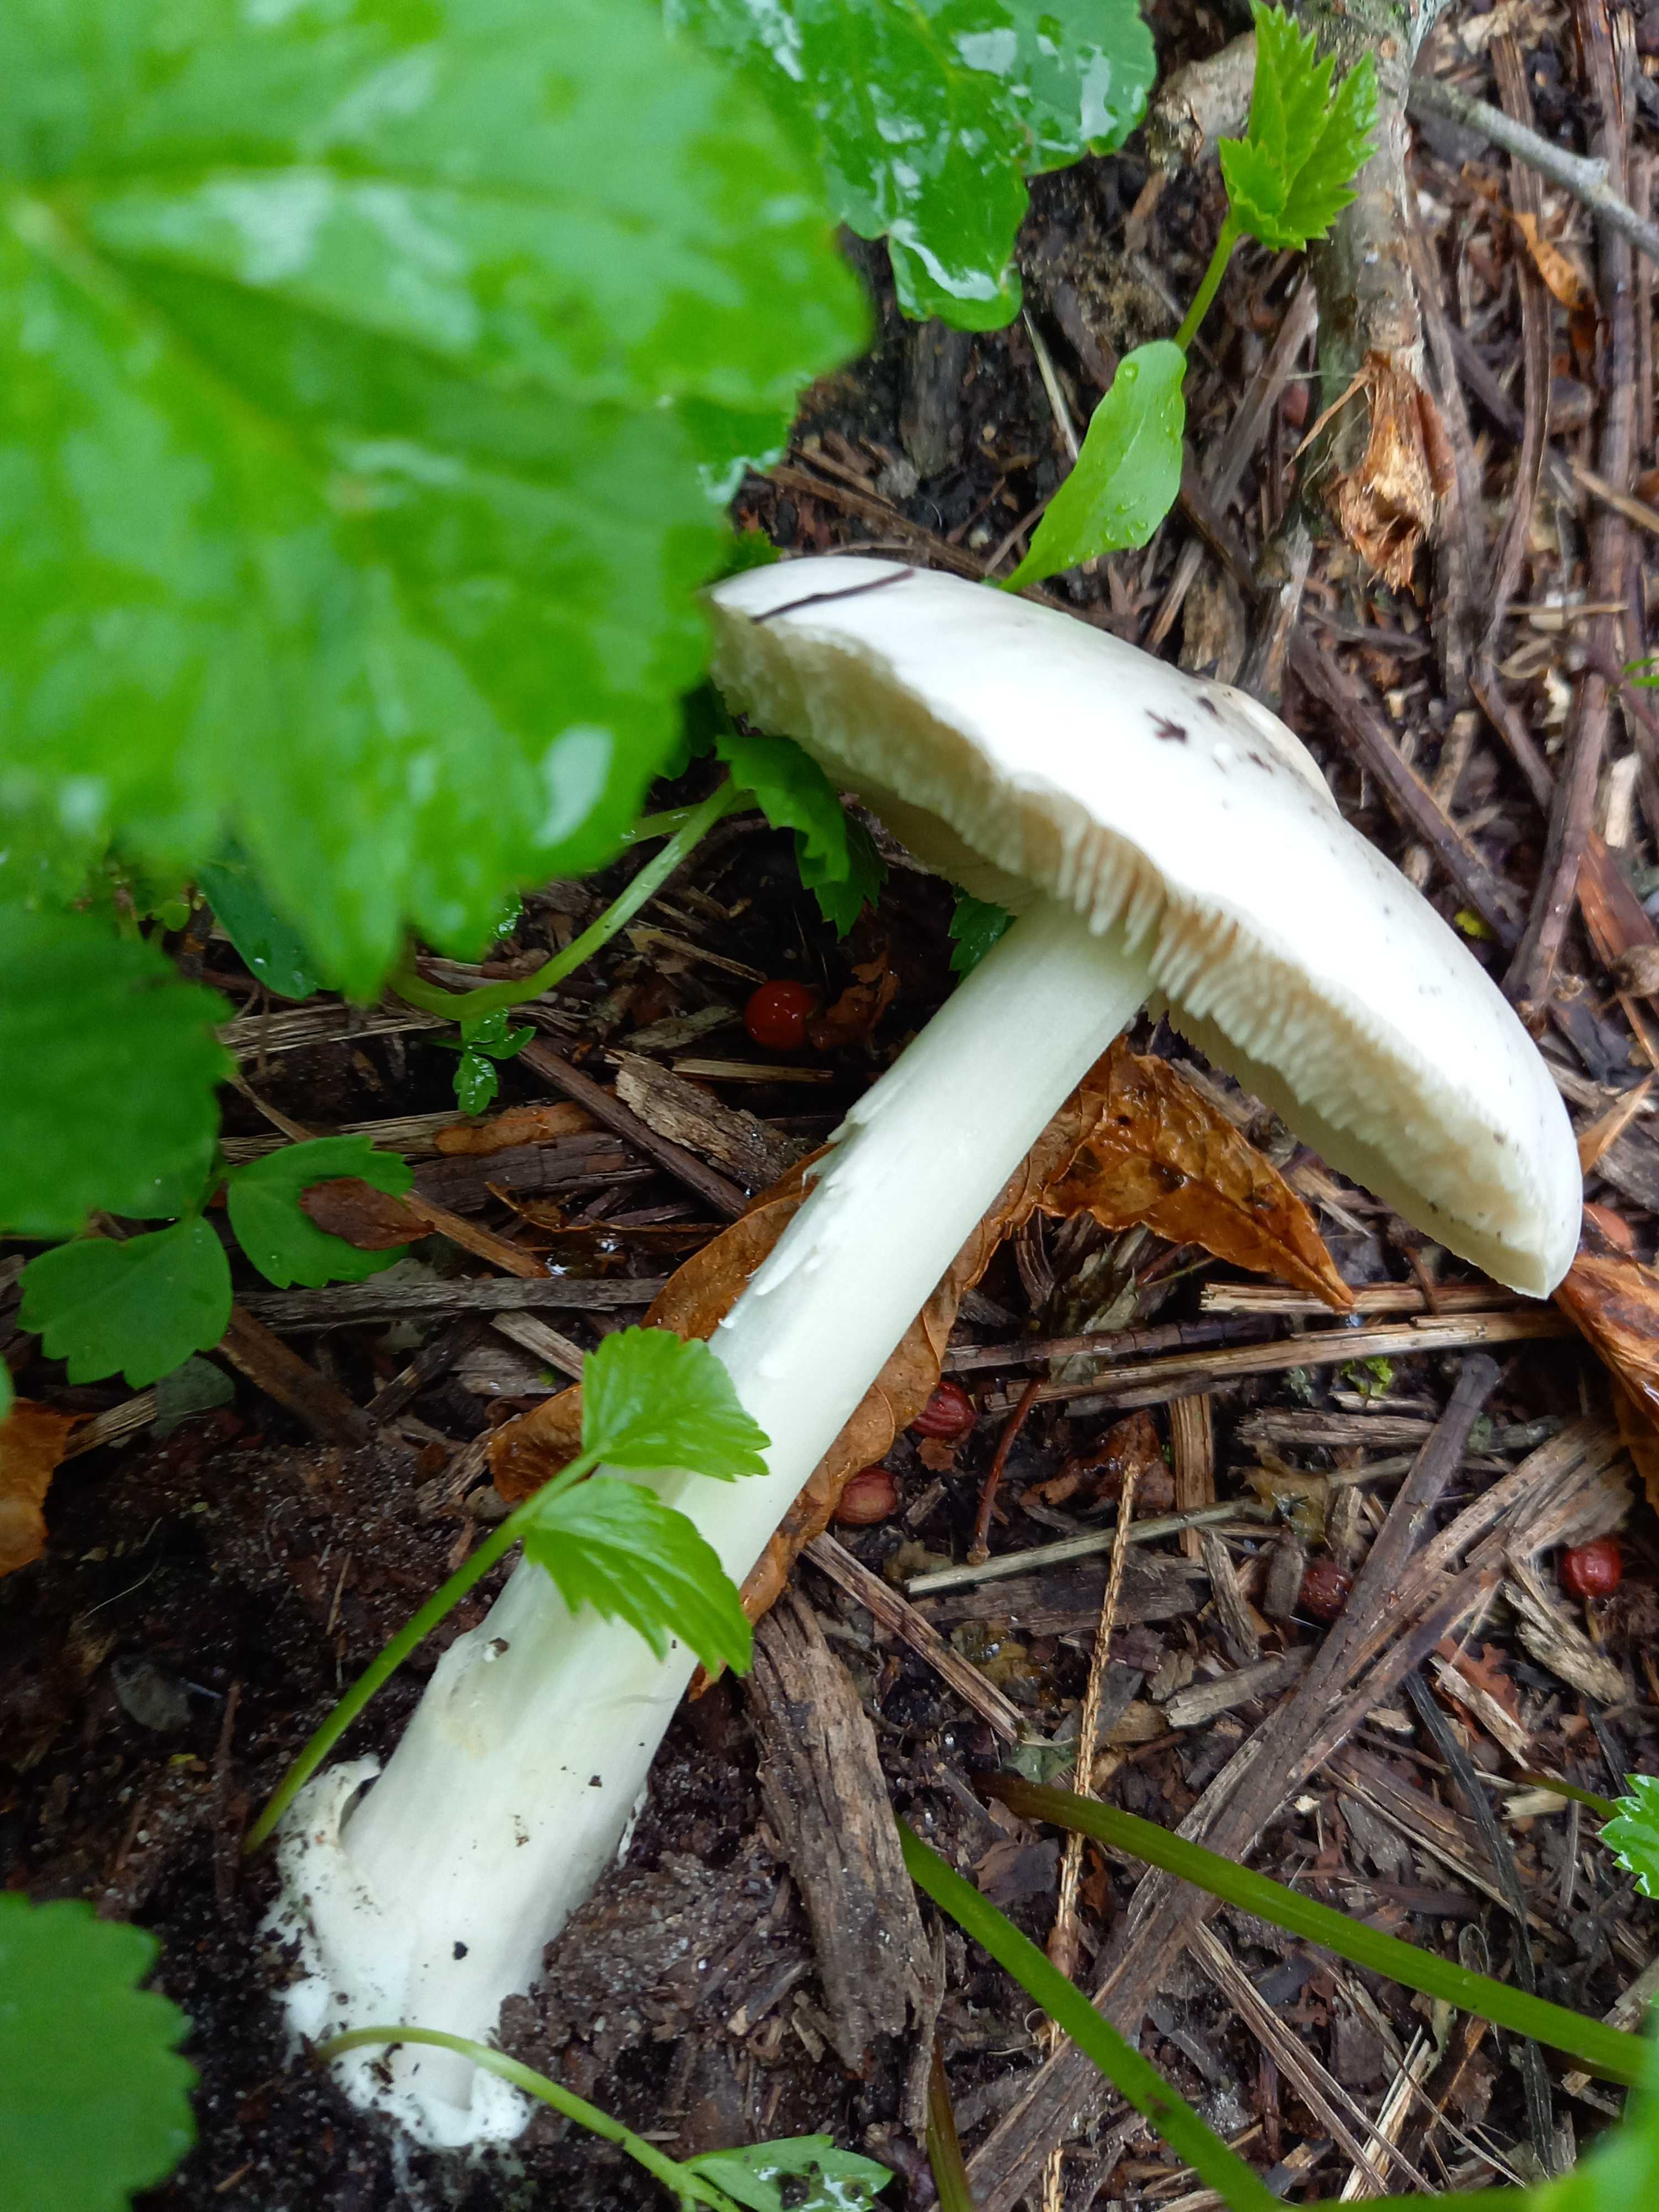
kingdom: Fungi
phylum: Basidiomycota
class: Agaricomycetes
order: Agaricales
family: Pluteaceae
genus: Volvopluteus
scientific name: Volvopluteus gloiocephalus
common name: høj posesvamp
